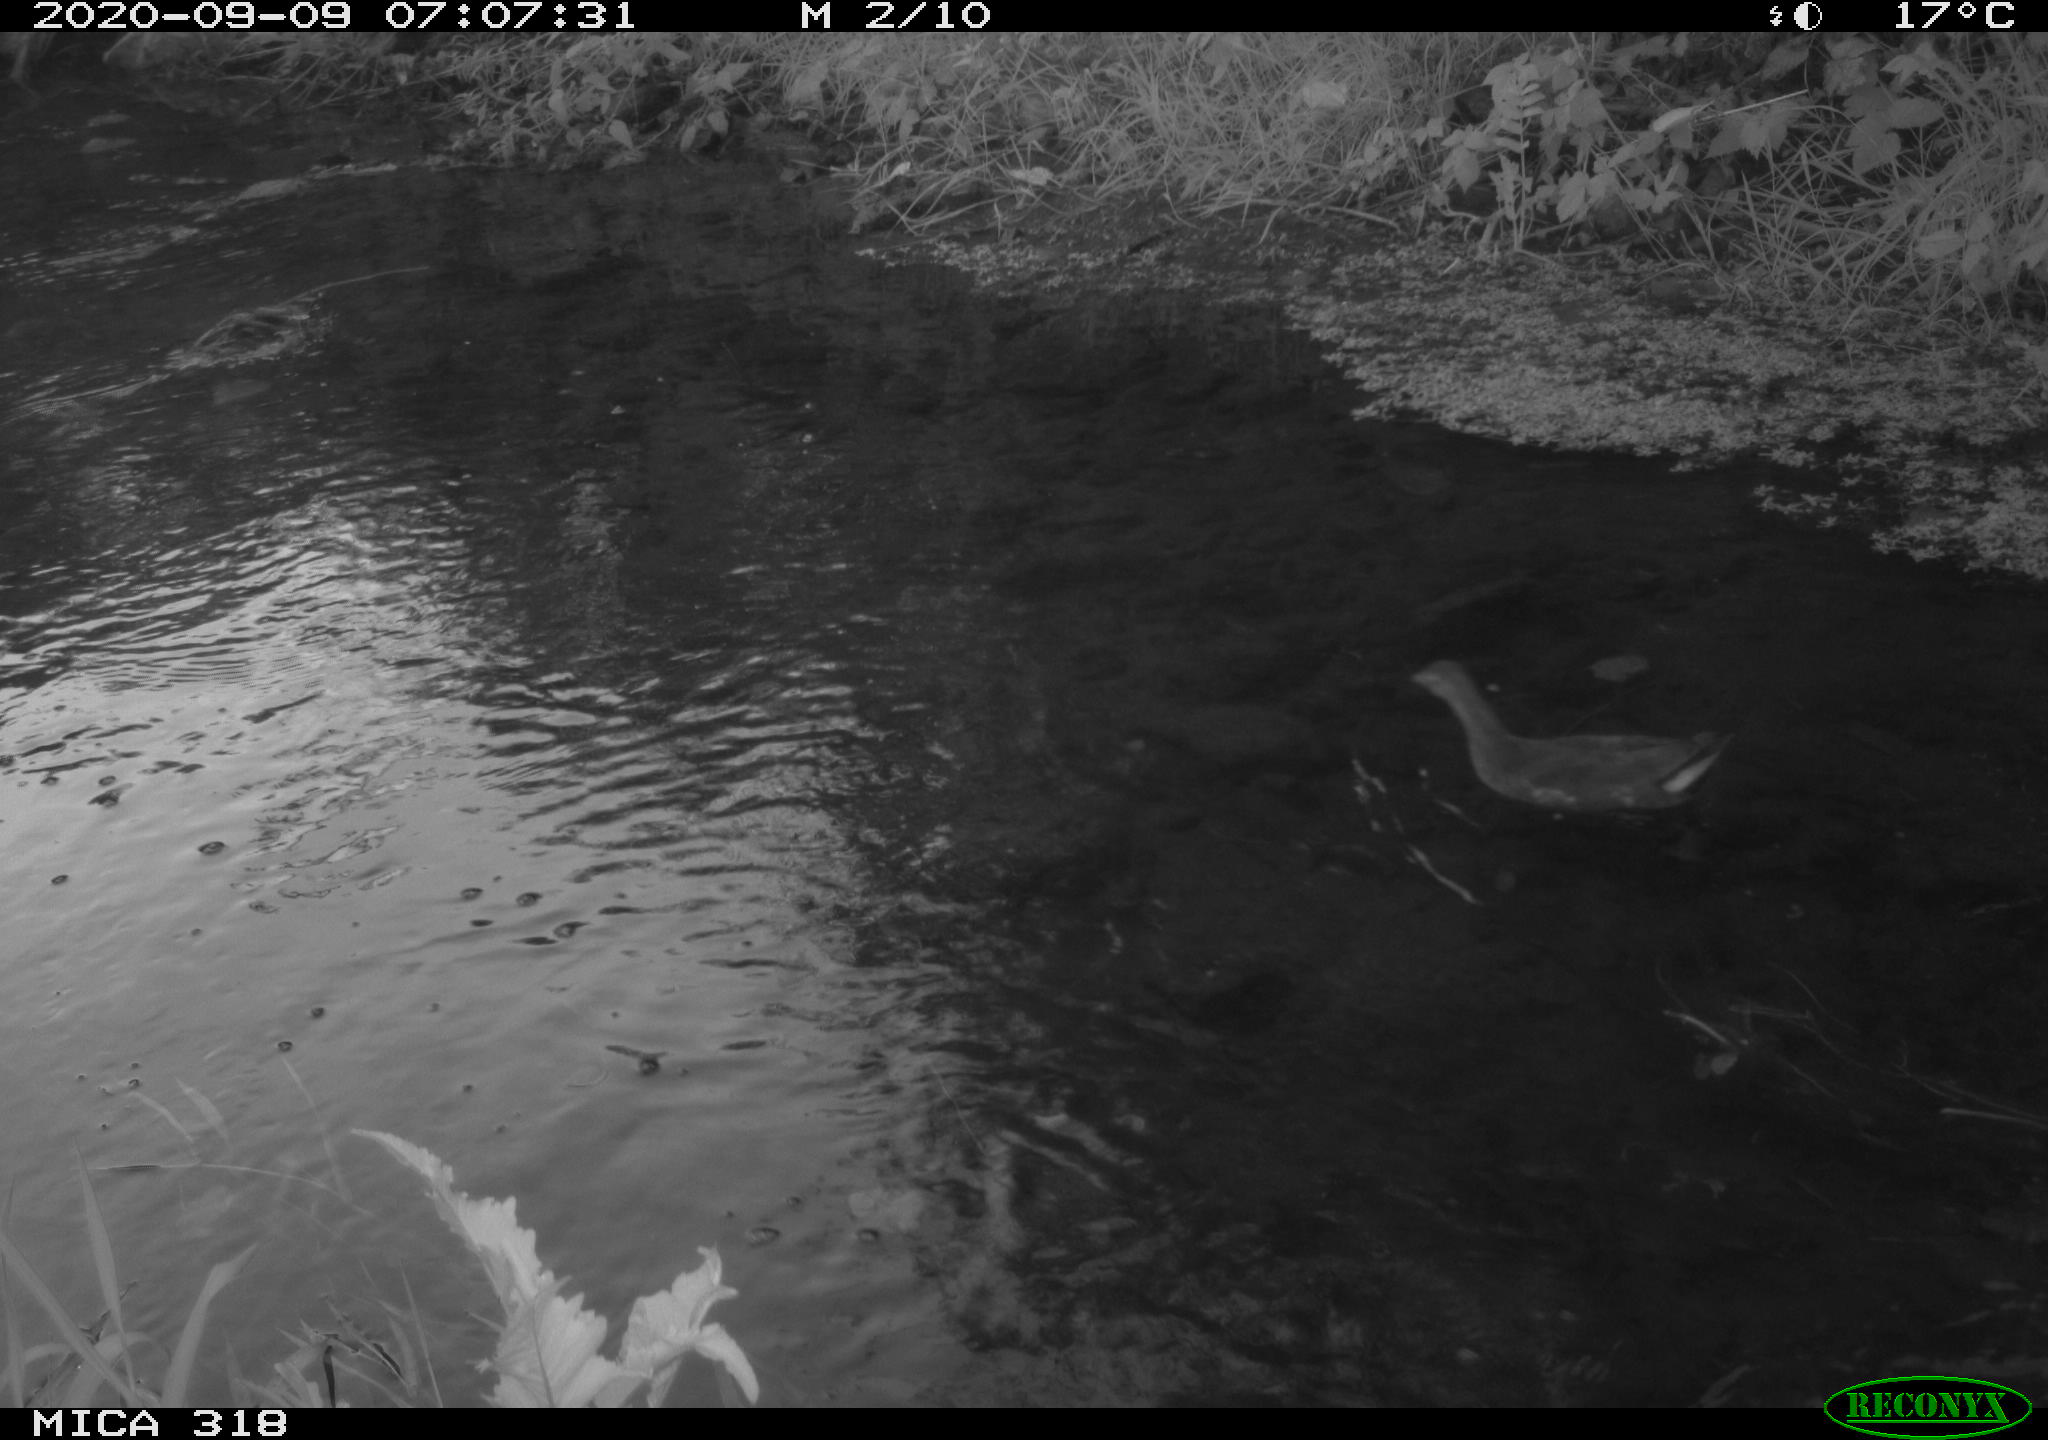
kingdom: Animalia
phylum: Chordata
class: Aves
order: Gruiformes
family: Rallidae
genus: Gallinula
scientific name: Gallinula chloropus
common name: Common moorhen
